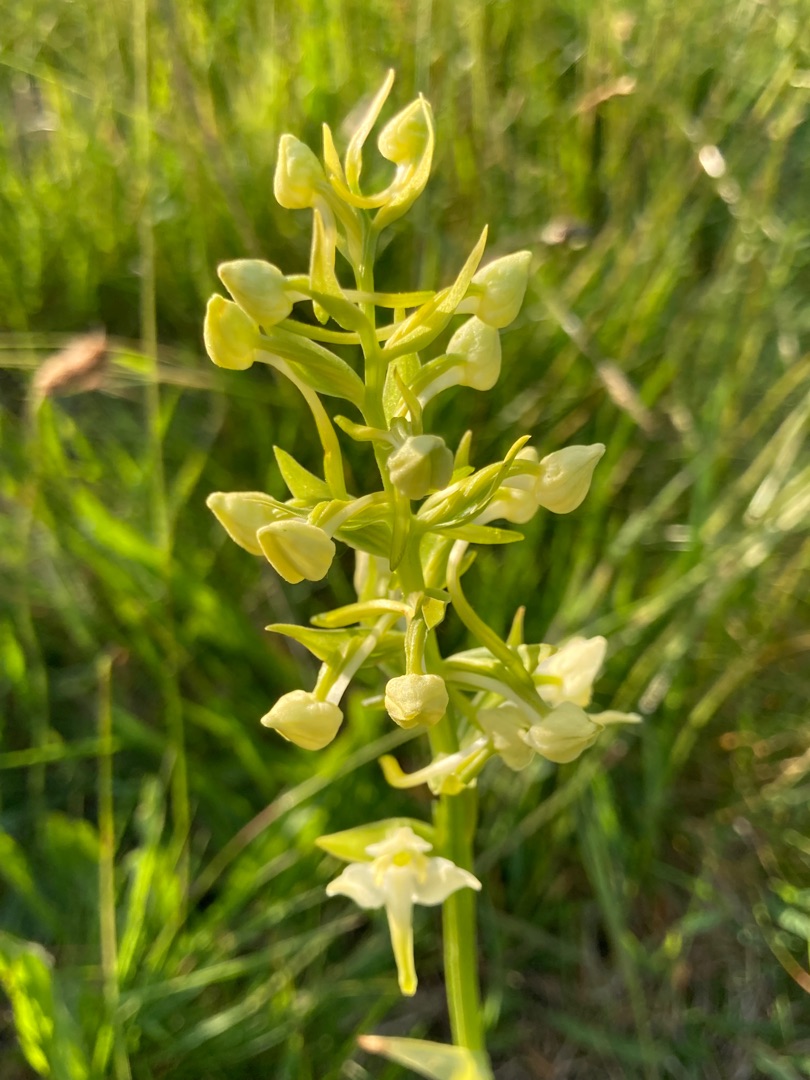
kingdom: Plantae
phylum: Tracheophyta
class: Liliopsida
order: Asparagales
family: Orchidaceae
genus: Platanthera
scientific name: Platanthera chlorantha
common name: Skov-gøgelilje
